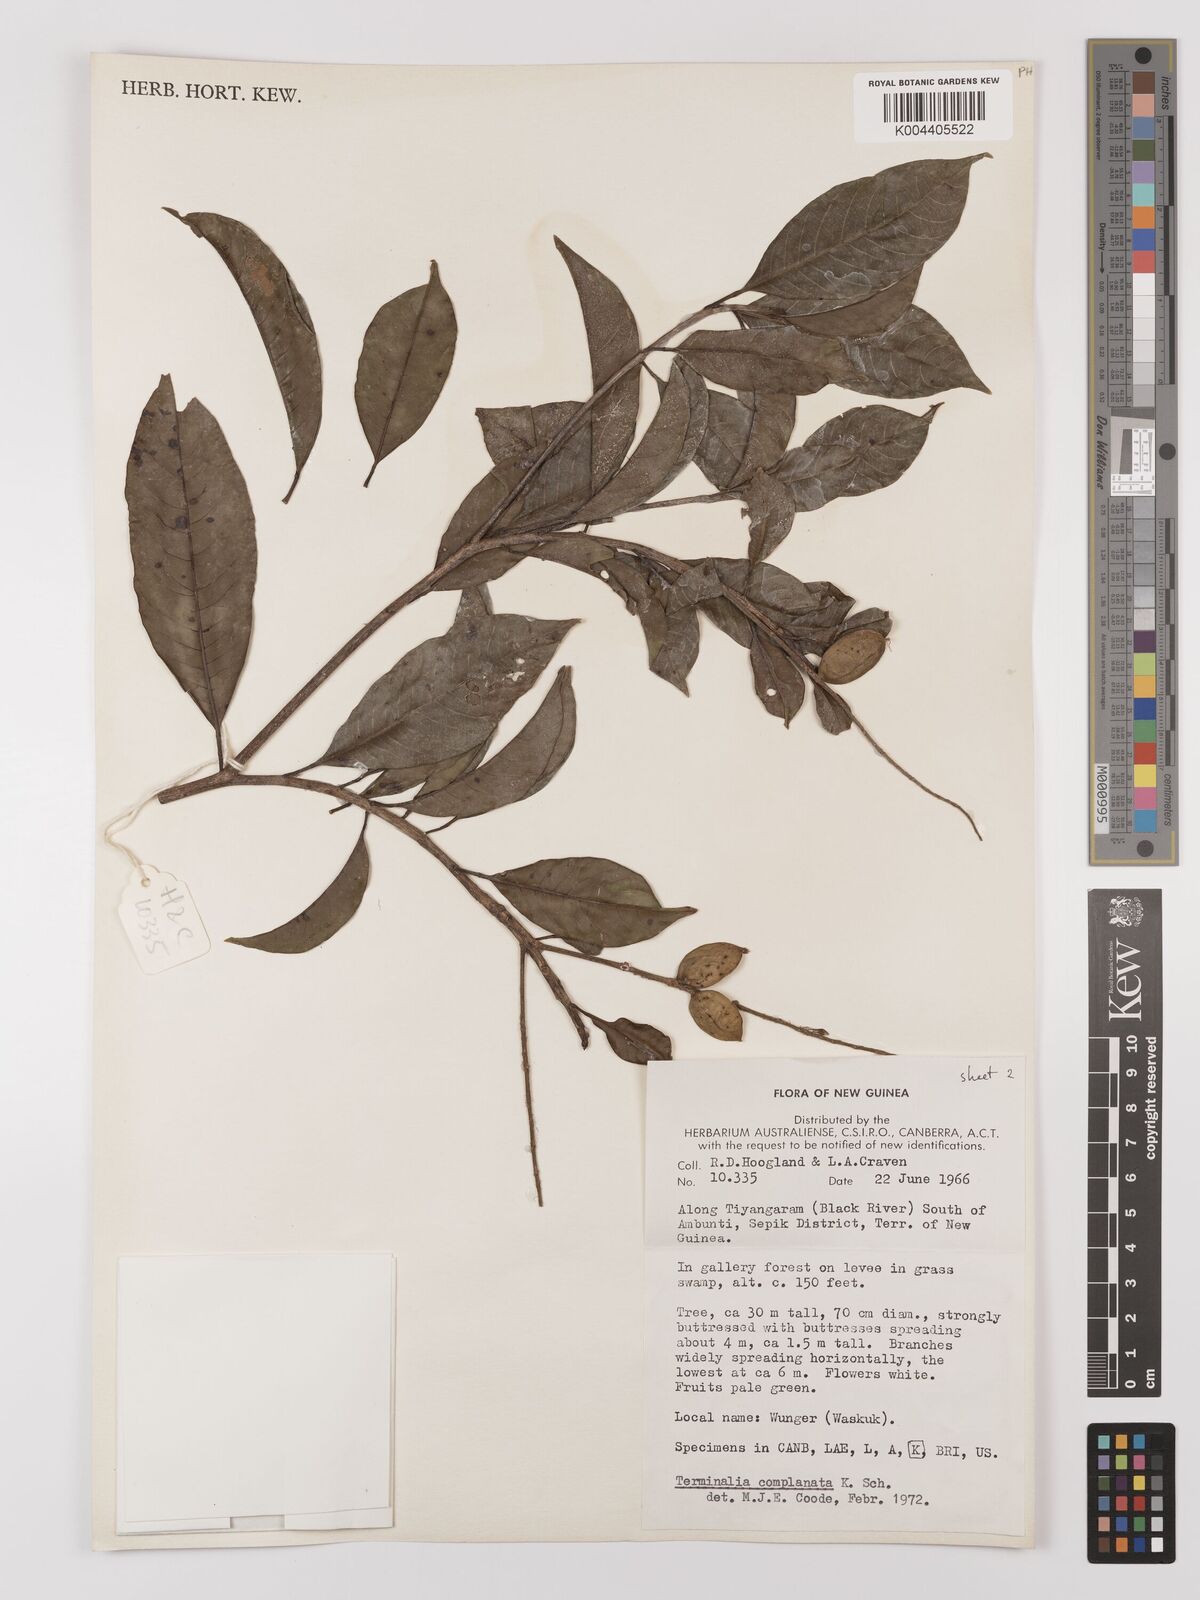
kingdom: Plantae
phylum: Tracheophyta
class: Magnoliopsida
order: Myrtales
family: Combretaceae
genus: Terminalia
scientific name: Terminalia
